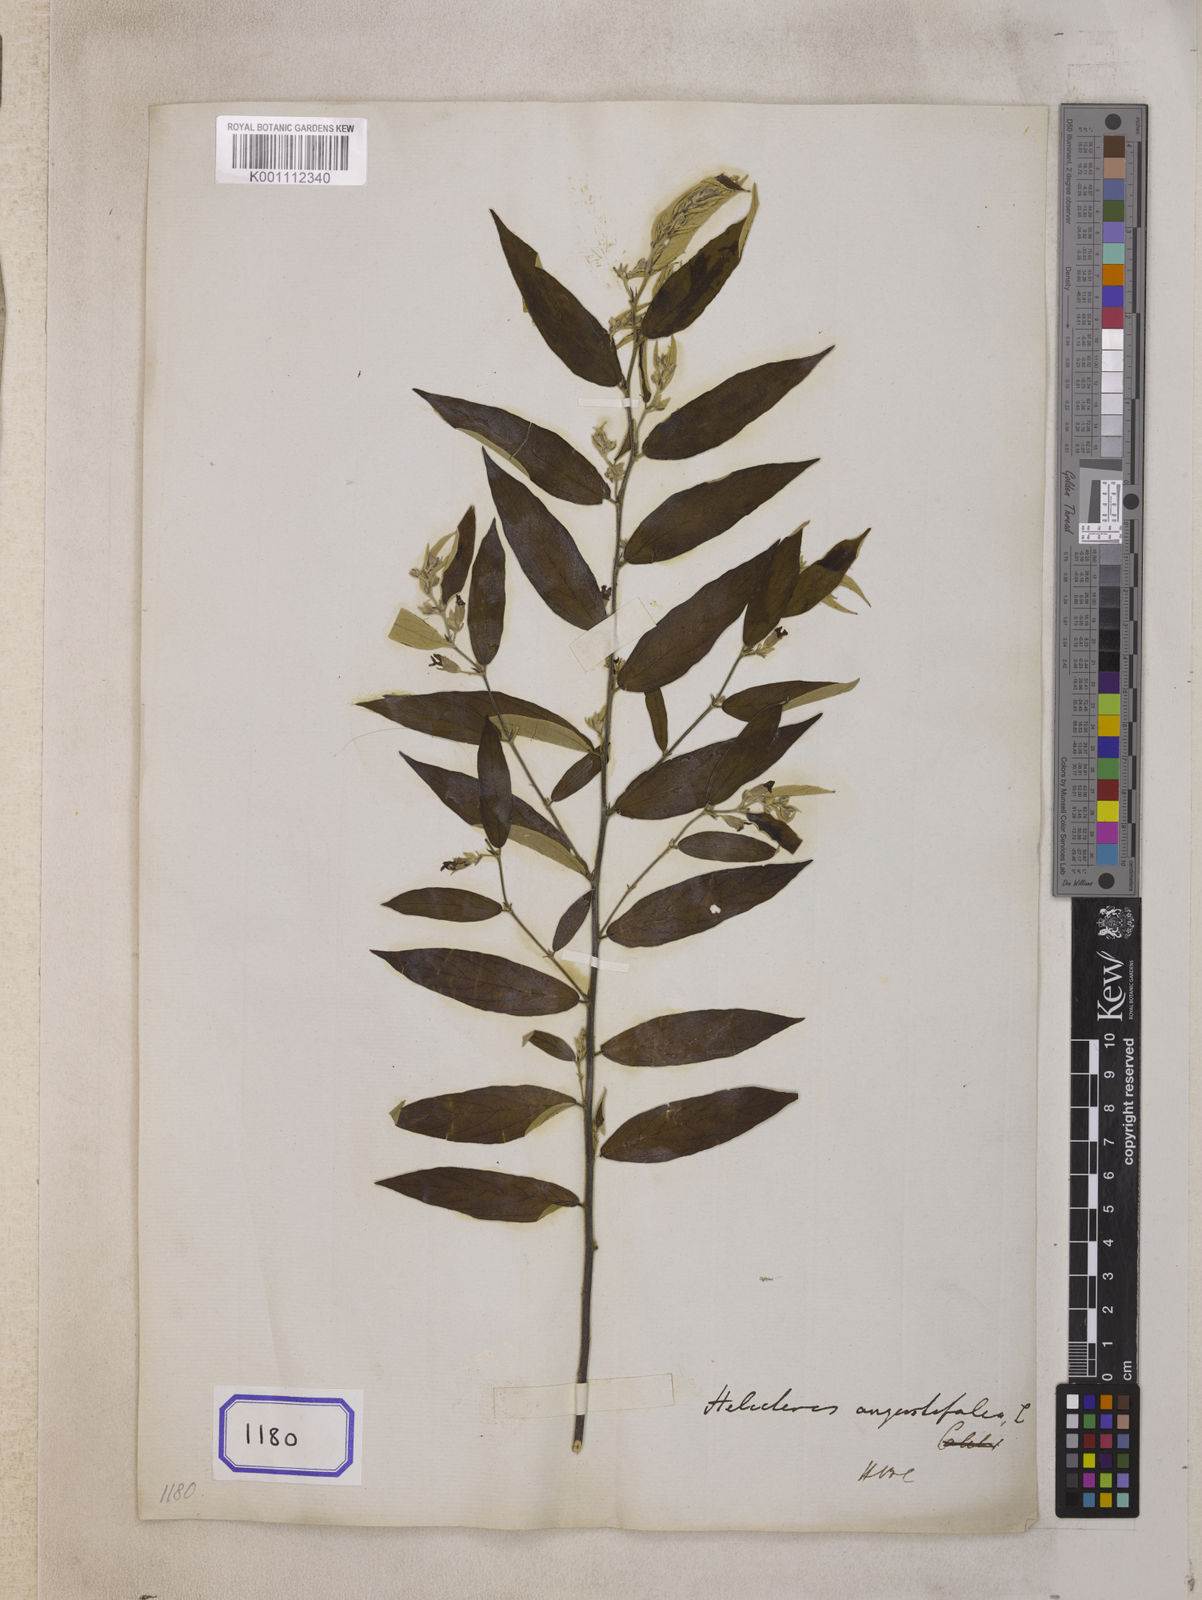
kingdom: Plantae
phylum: Tracheophyta
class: Magnoliopsida
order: Malvales
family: Malvaceae
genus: Helicteres
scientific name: Helicteres angustifolia
